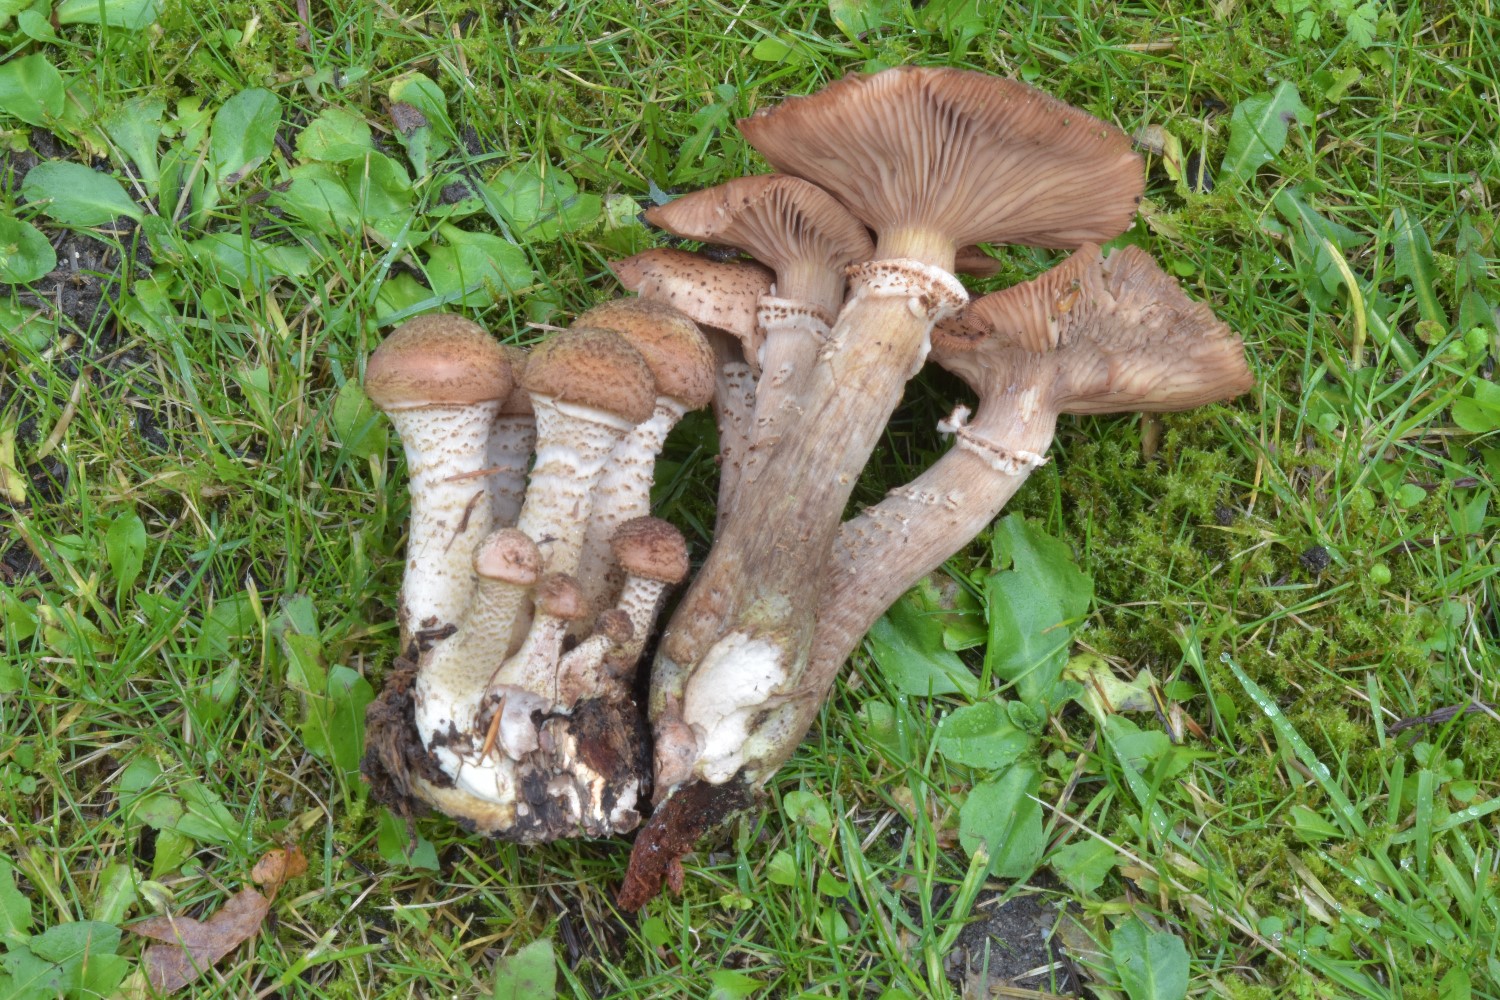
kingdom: Fungi
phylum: Basidiomycota
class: Agaricomycetes
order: Agaricales
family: Physalacriaceae
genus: Armillaria
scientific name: Armillaria ostoyae
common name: mørk honningsvamp
